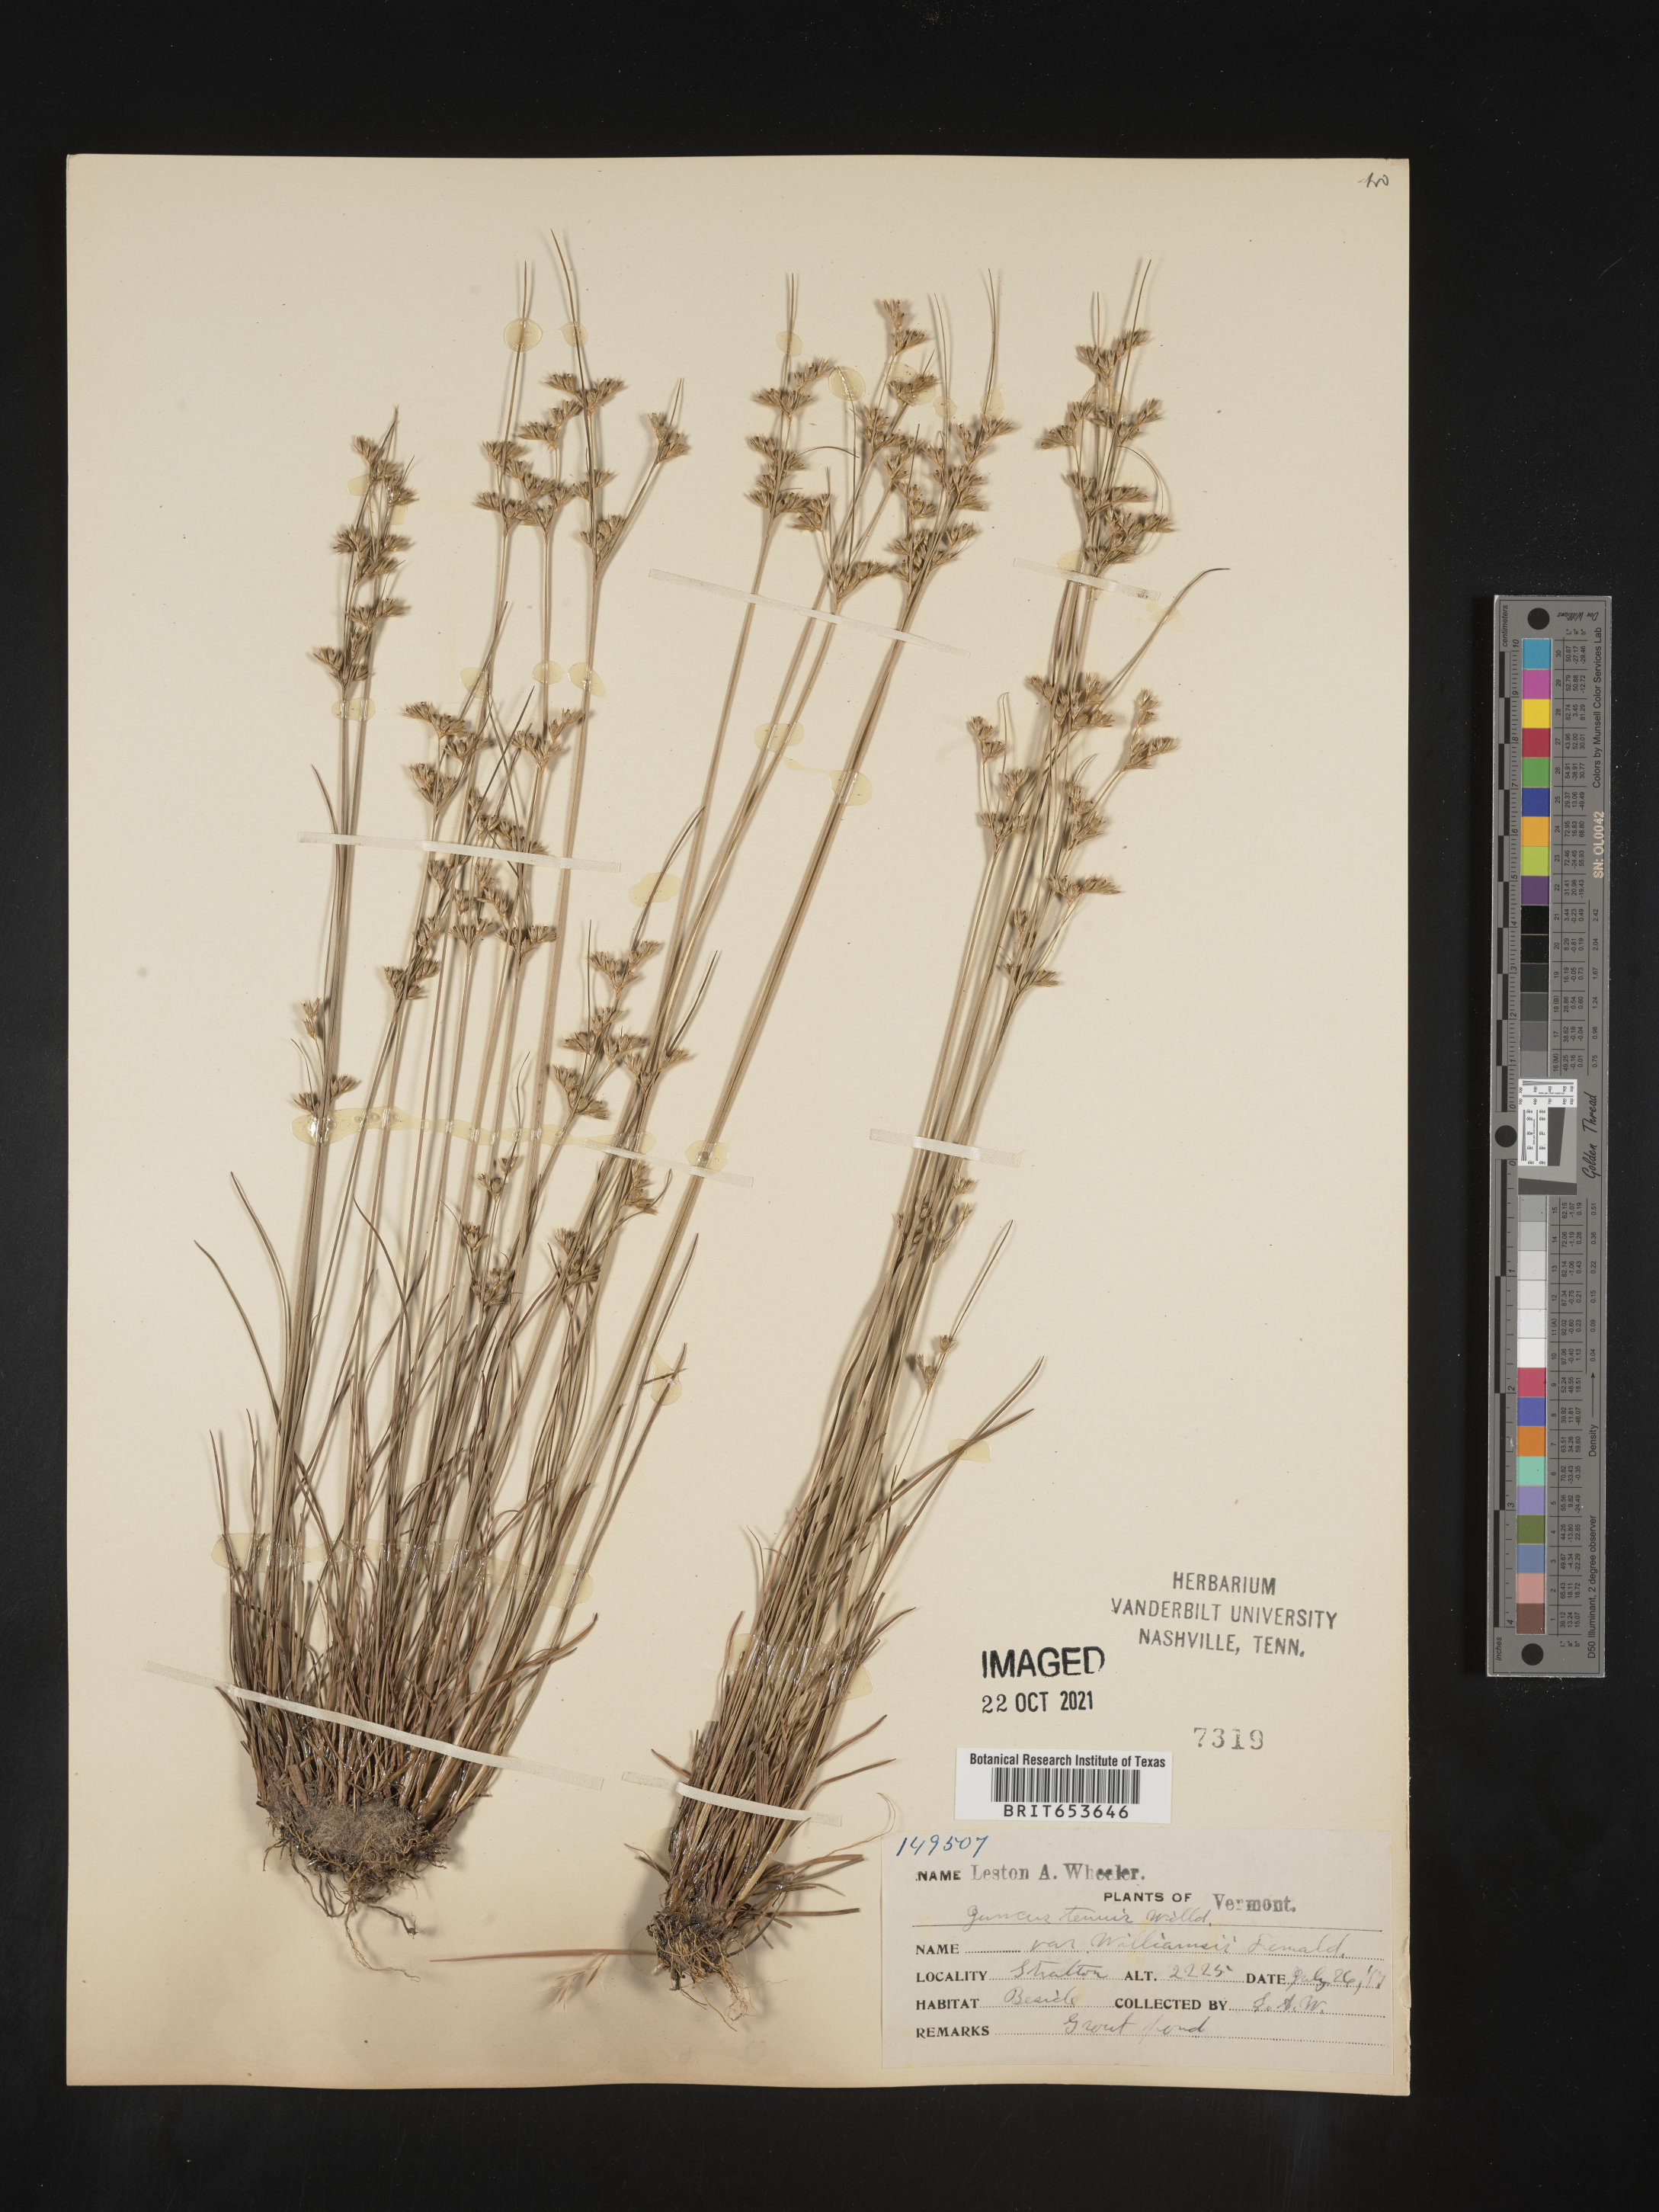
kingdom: Plantae
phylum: Tracheophyta
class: Liliopsida
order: Poales
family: Juncaceae
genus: Juncus
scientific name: Juncus tenuis
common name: Slender rush
